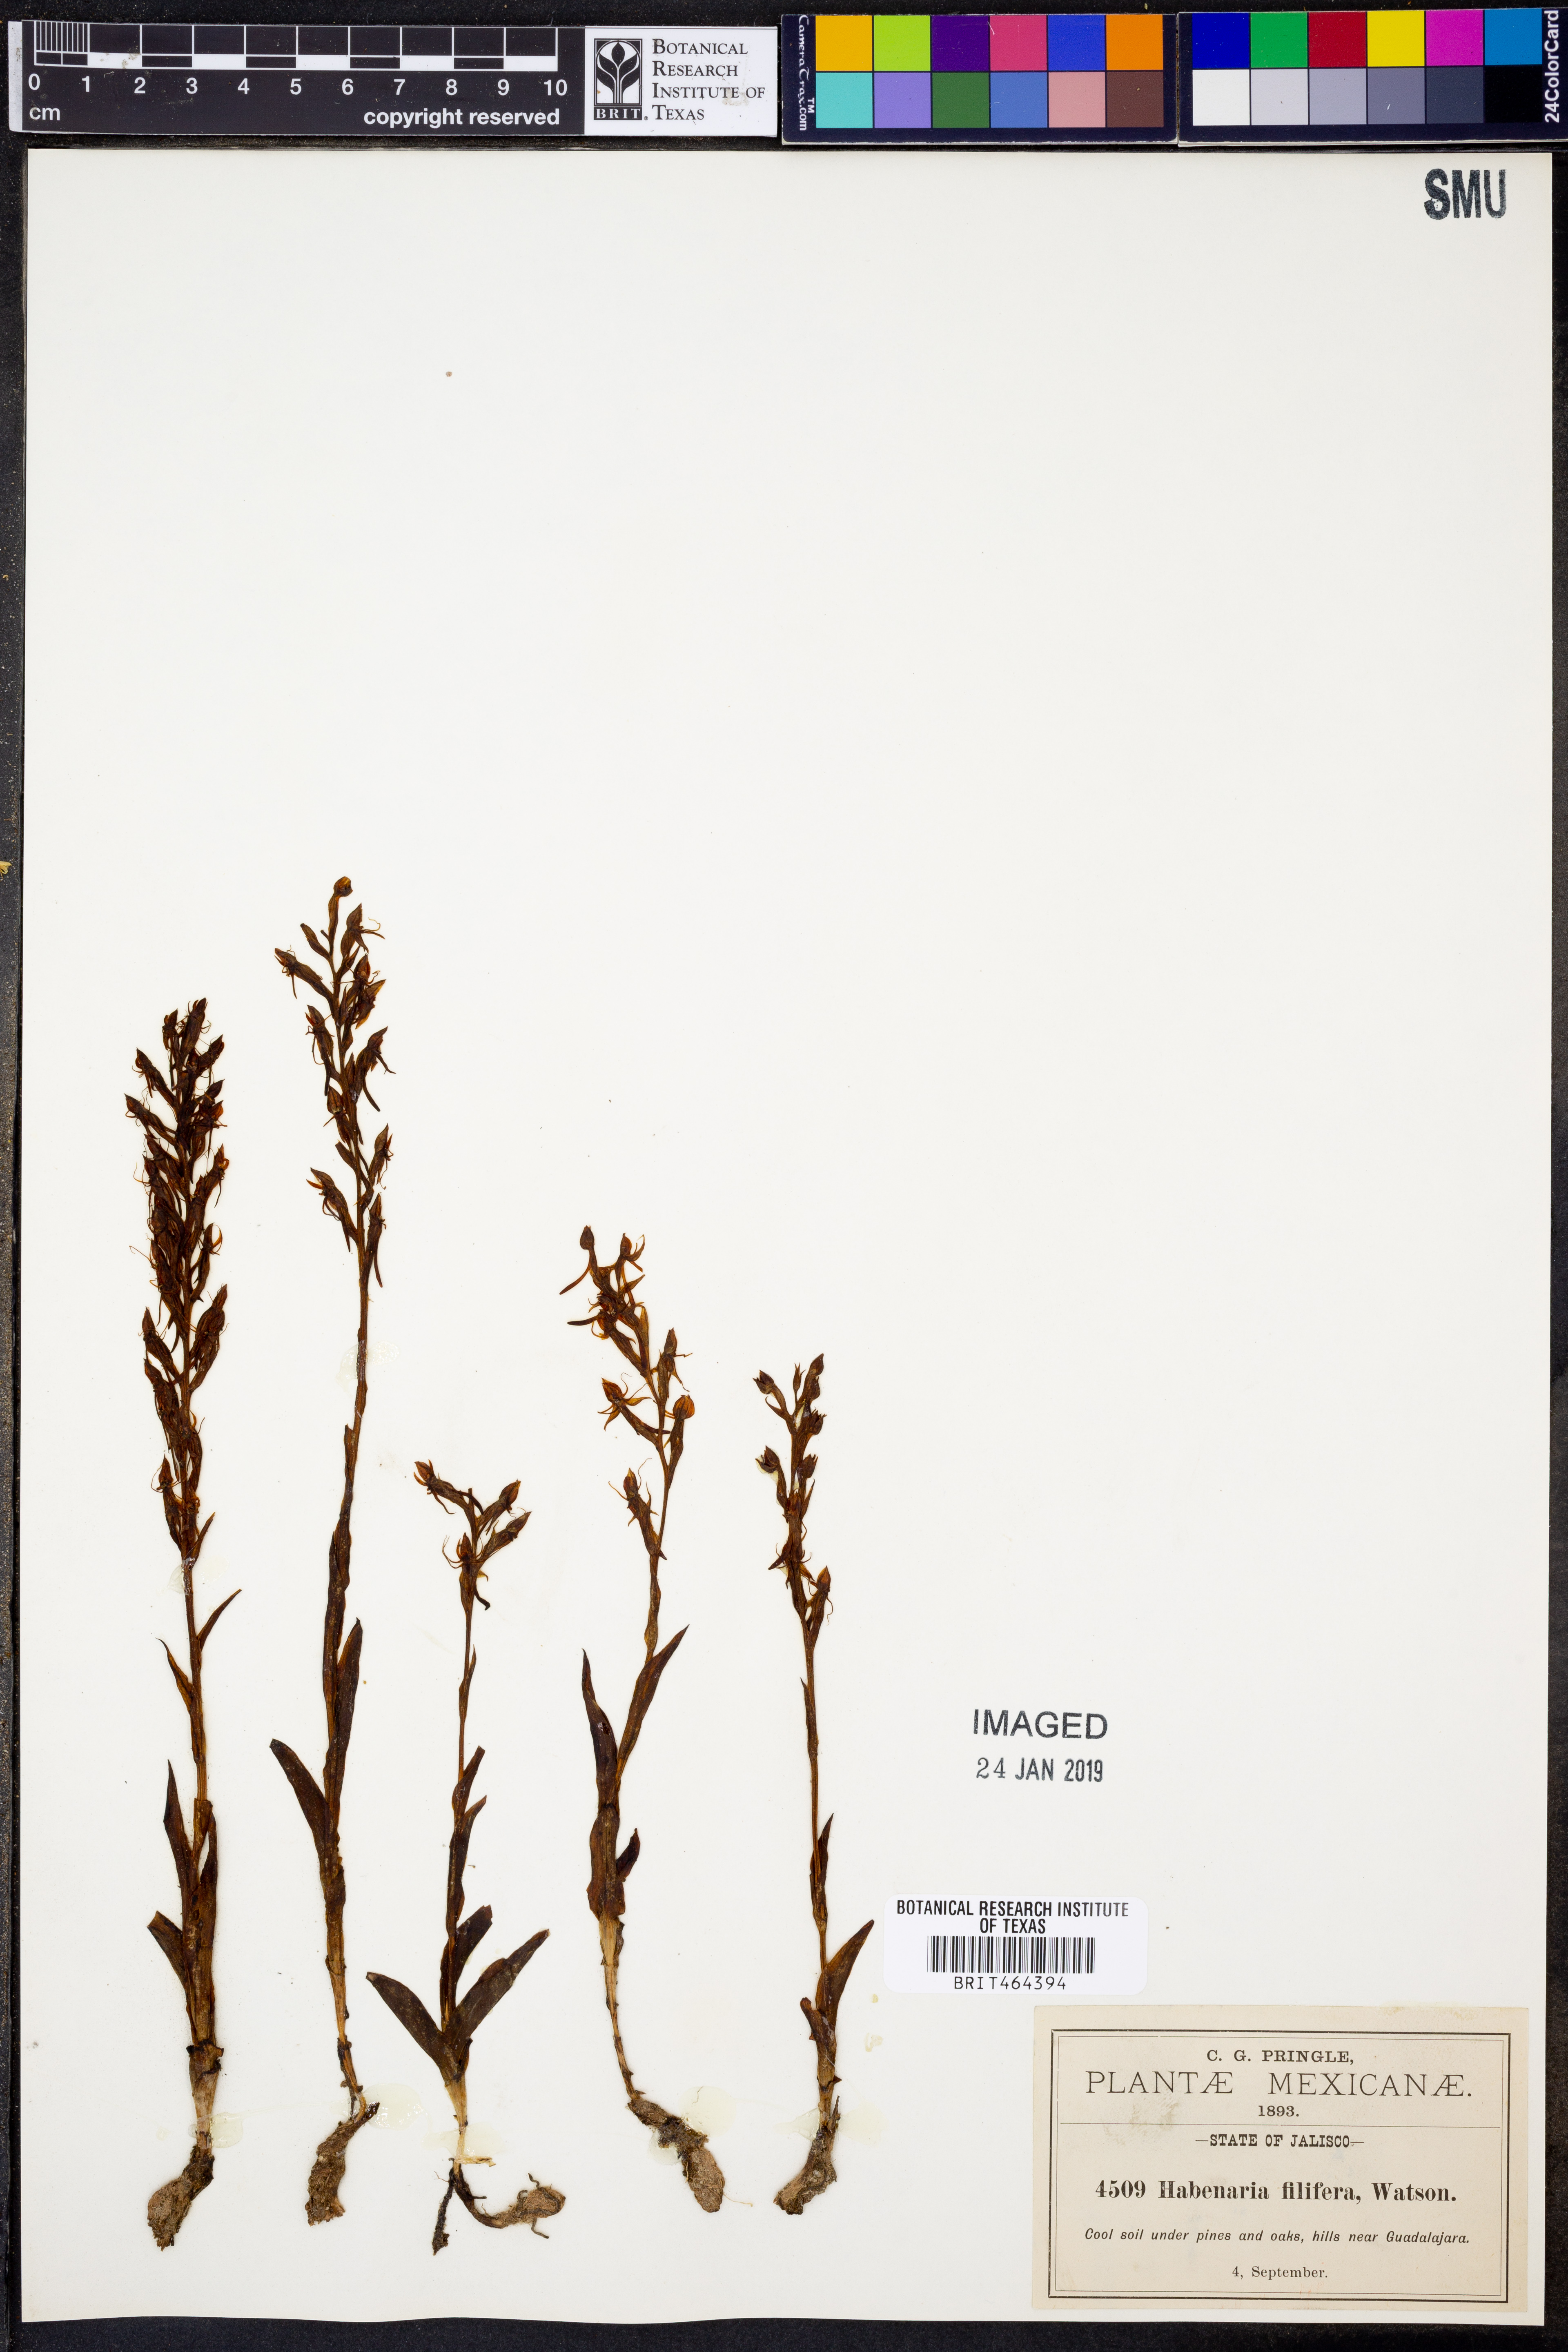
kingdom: Plantae
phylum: Tracheophyta
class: Liliopsida
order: Asparagales
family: Orchidaceae
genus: Habenaria
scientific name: Habenaria filifera
